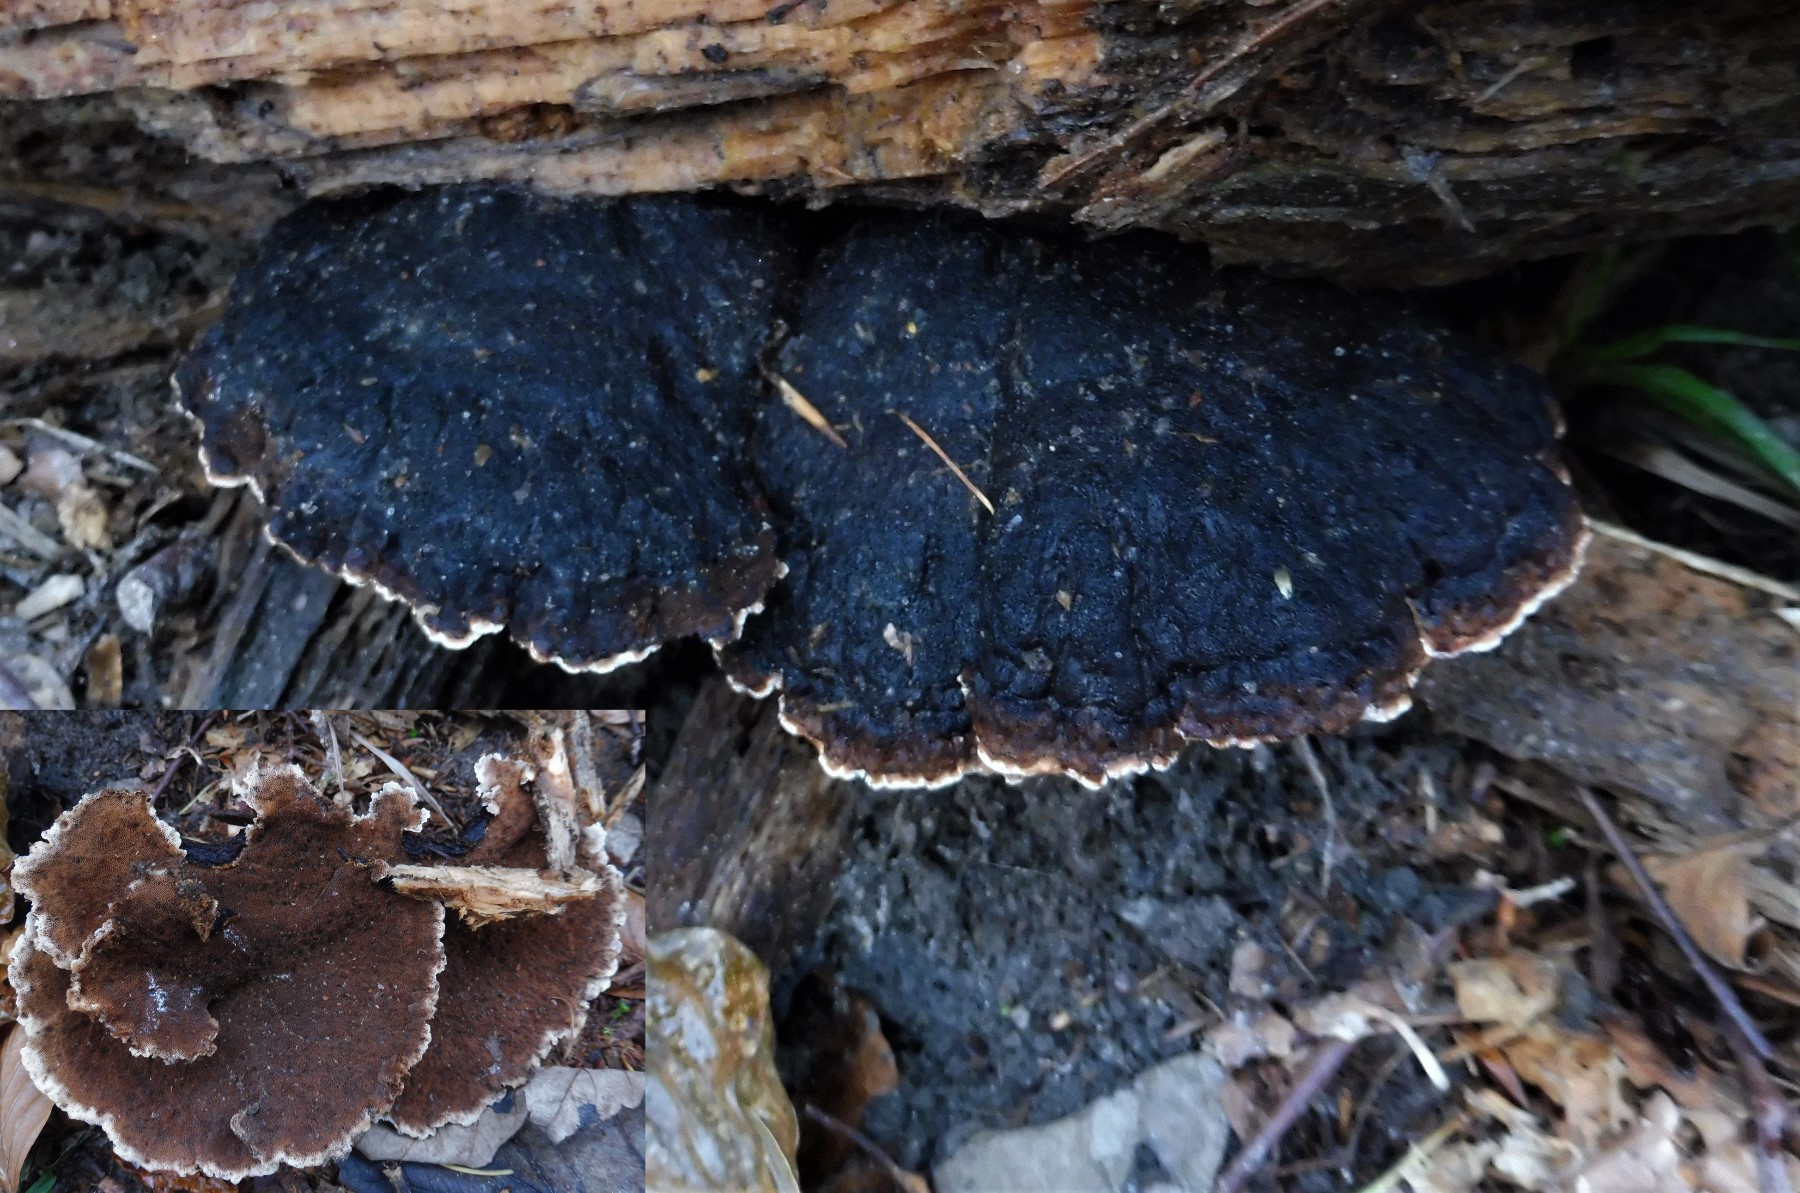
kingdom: Fungi
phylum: Basidiomycota
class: Agaricomycetes
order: Polyporales
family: Ischnodermataceae
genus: Ischnoderma
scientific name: Ischnoderma benzoinum
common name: gran-tjæreporesvamp
